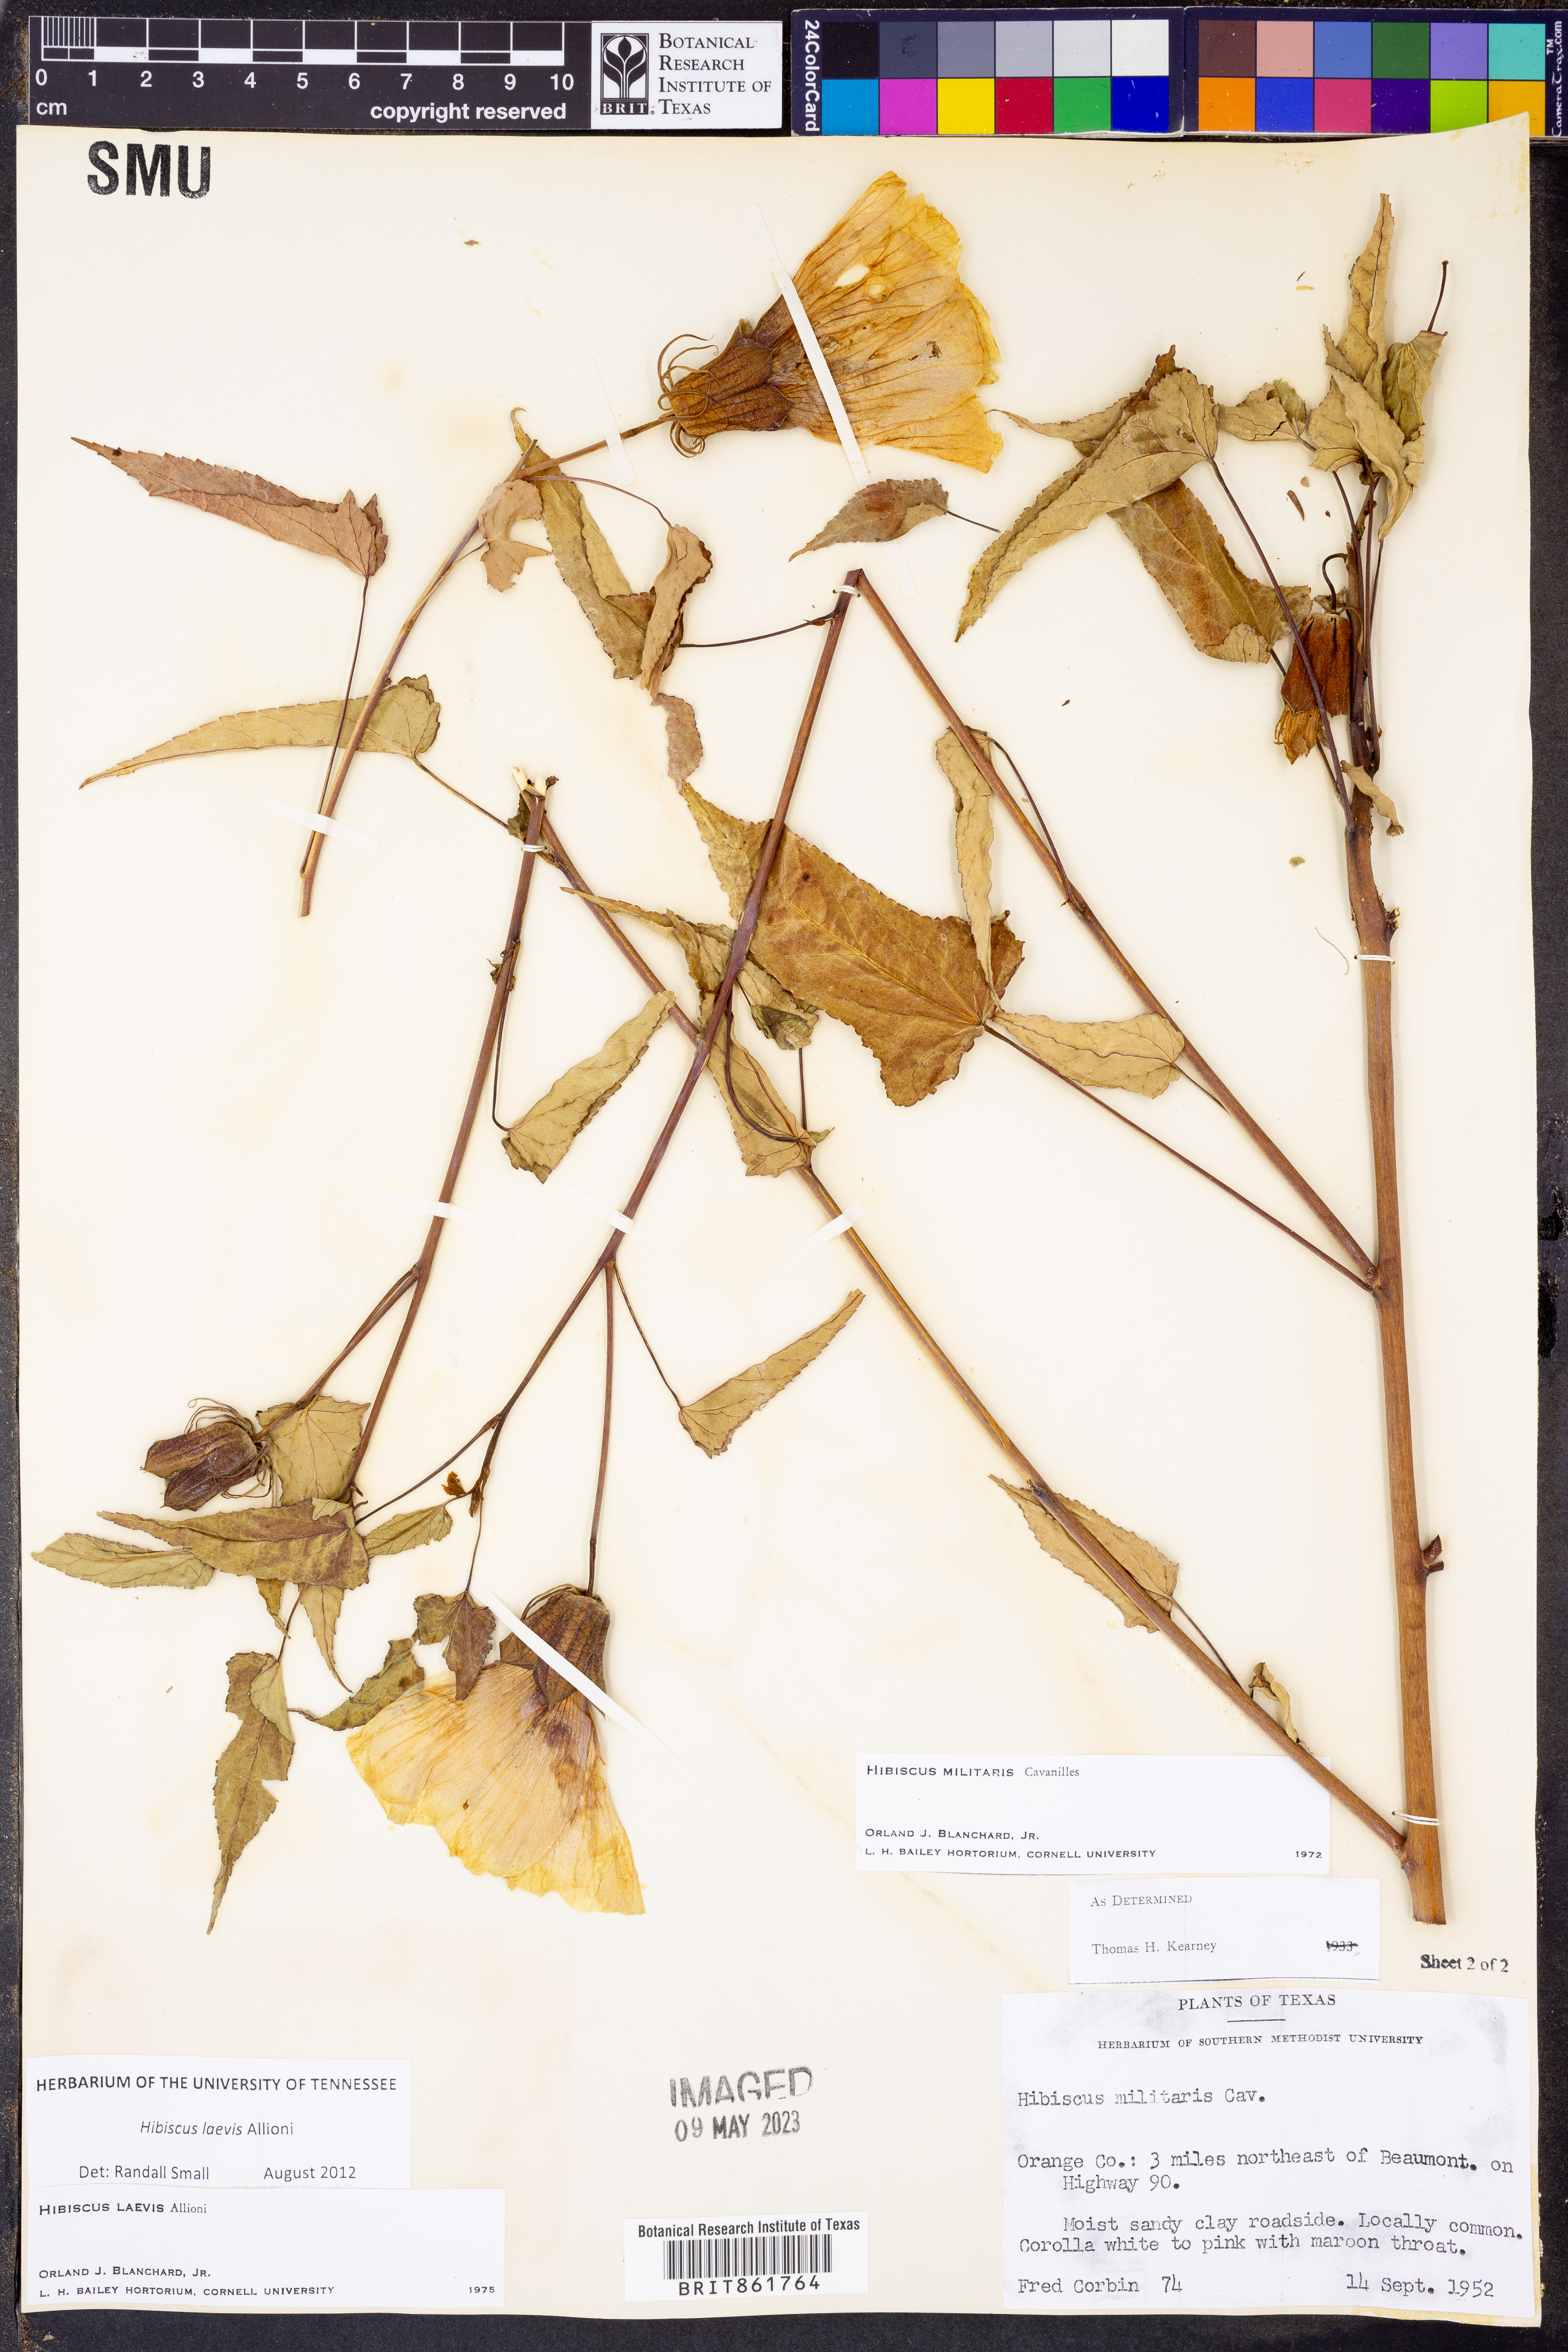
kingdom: Plantae
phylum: Tracheophyta
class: Magnoliopsida
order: Malvales
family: Malvaceae
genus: Hibiscus
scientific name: Hibiscus laevis
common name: Scarlet rose-mallow
